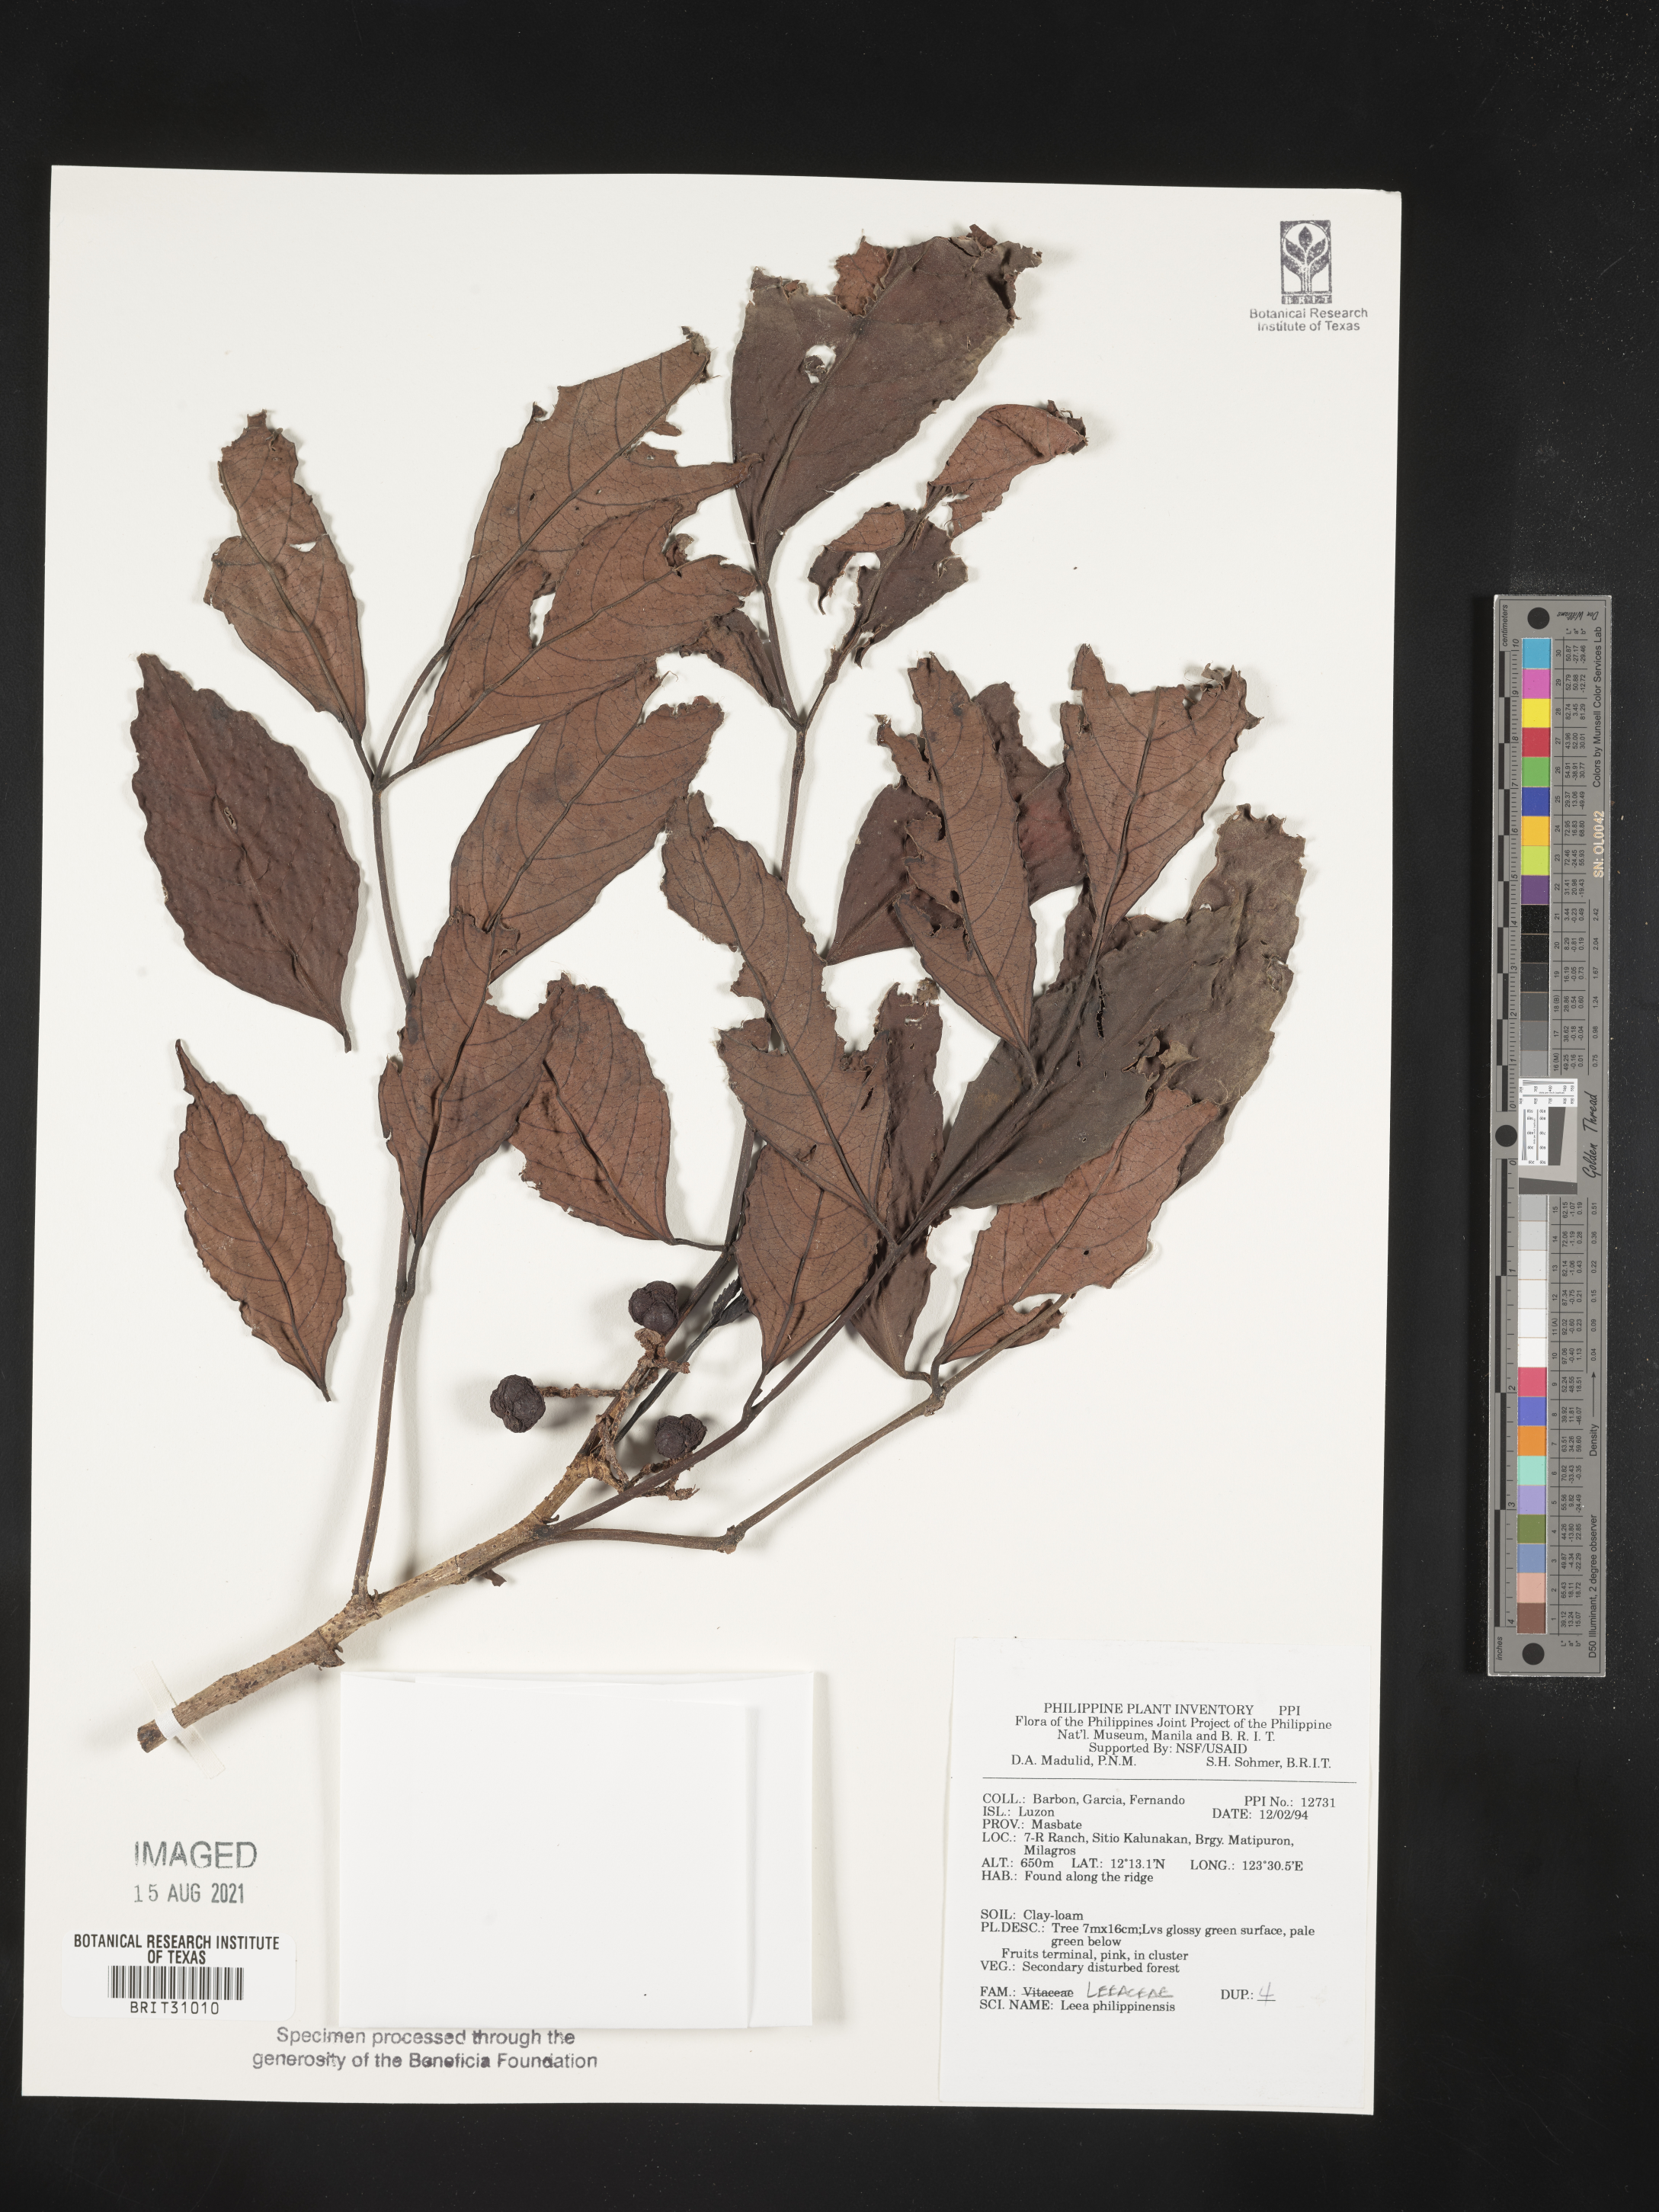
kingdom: Plantae
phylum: Tracheophyta
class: Magnoliopsida
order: Vitales
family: Vitaceae
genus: Leea
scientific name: Leea philippinensis
